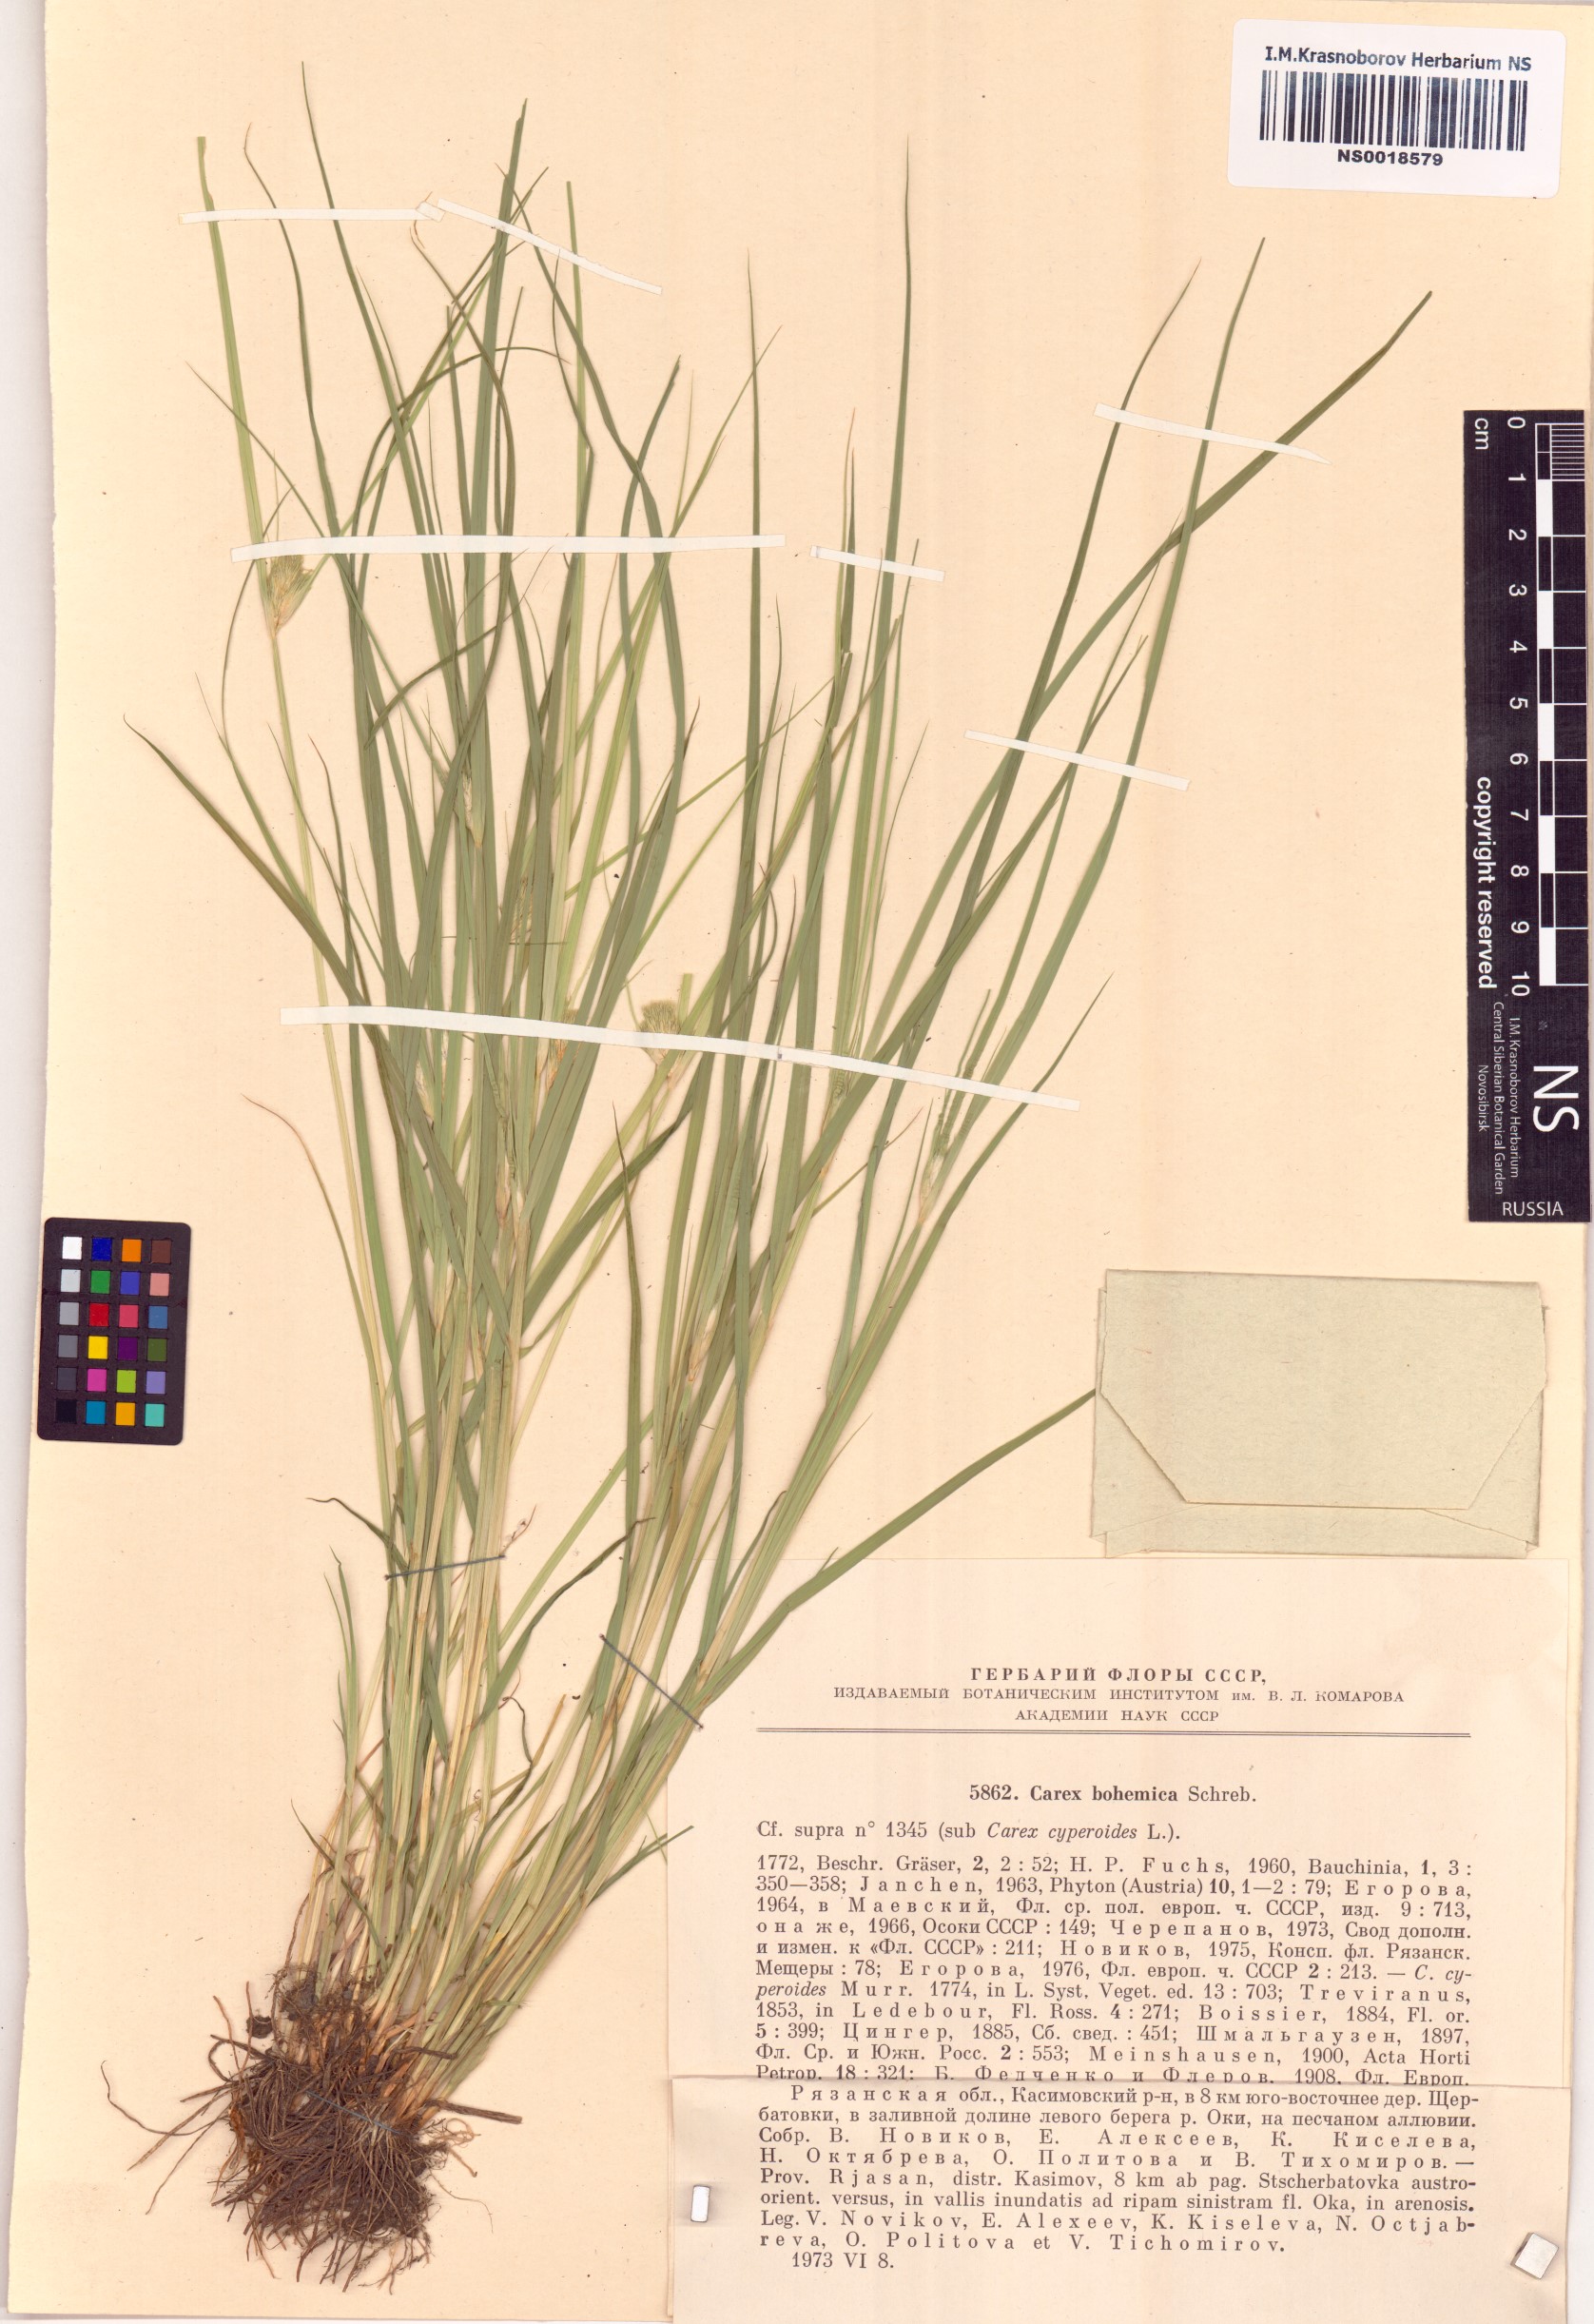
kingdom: Plantae
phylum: Tracheophyta
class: Liliopsida
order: Poales
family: Cyperaceae
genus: Carex
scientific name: Carex bohemica
